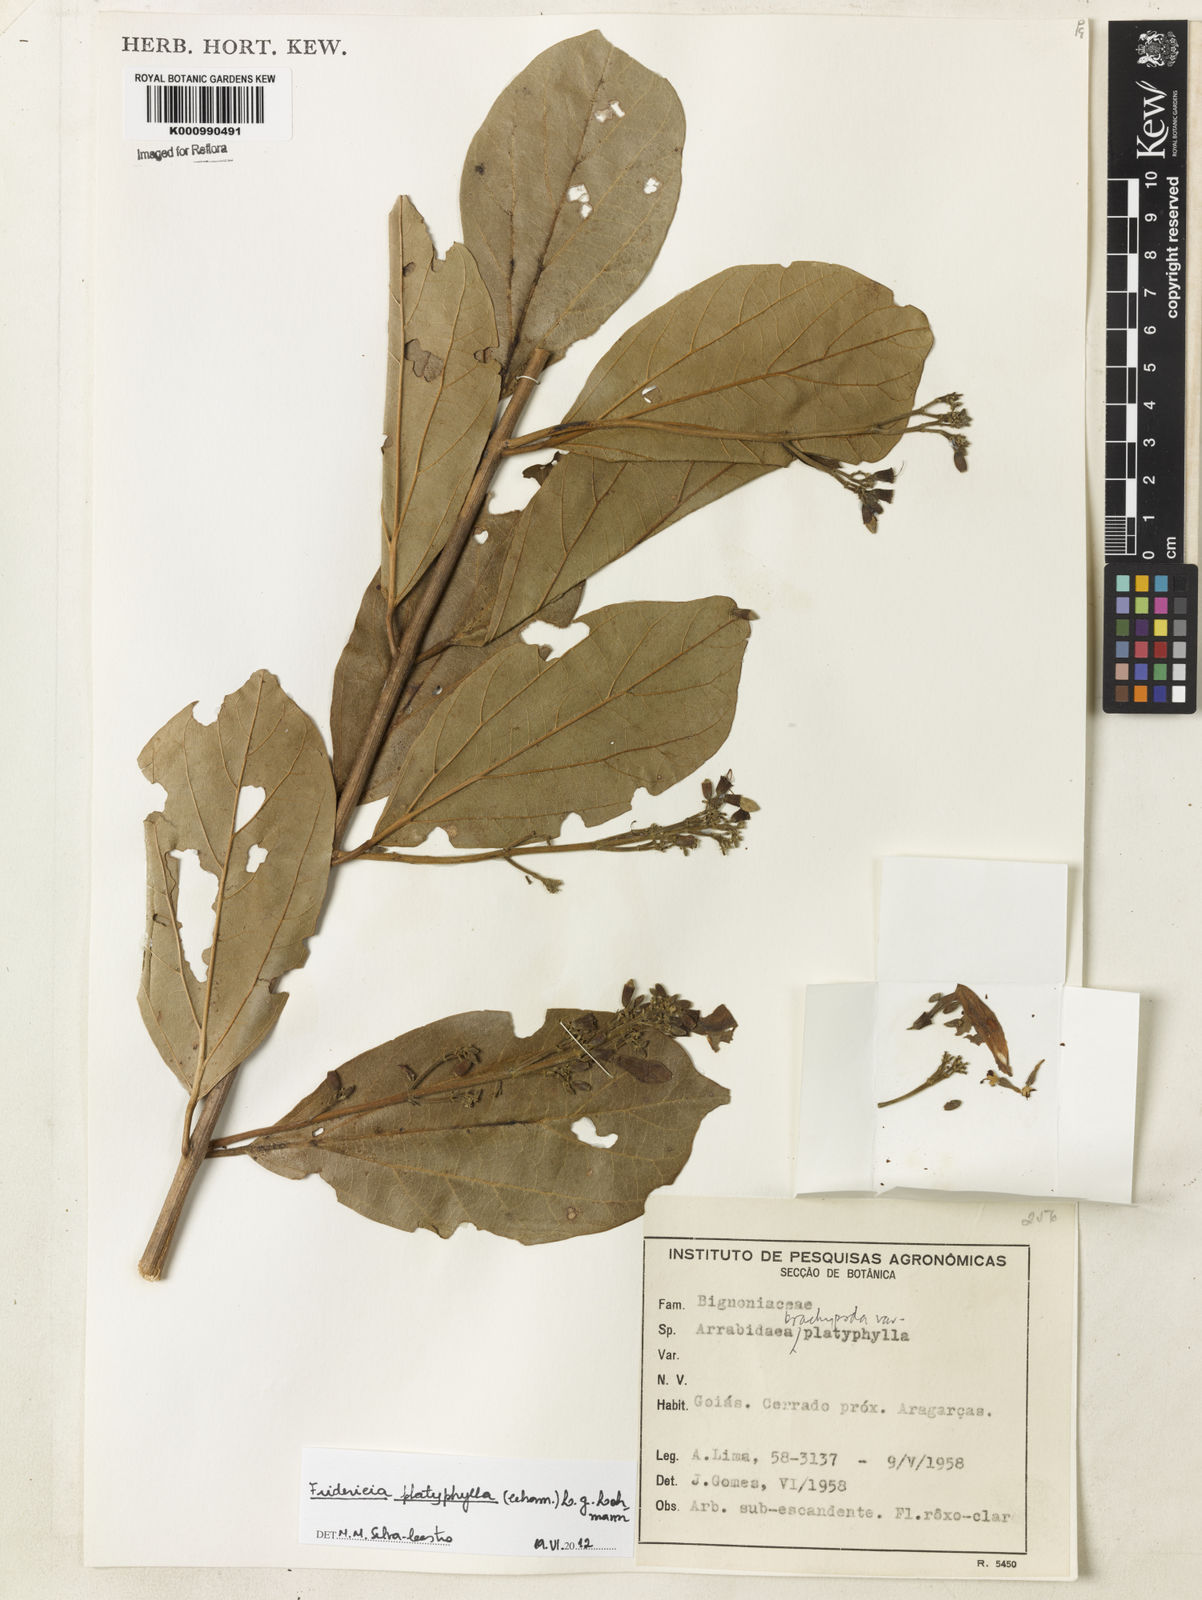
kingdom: Plantae
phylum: Tracheophyta
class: Magnoliopsida
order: Lamiales
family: Bignoniaceae
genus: Fridericia
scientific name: Fridericia platyphylla
